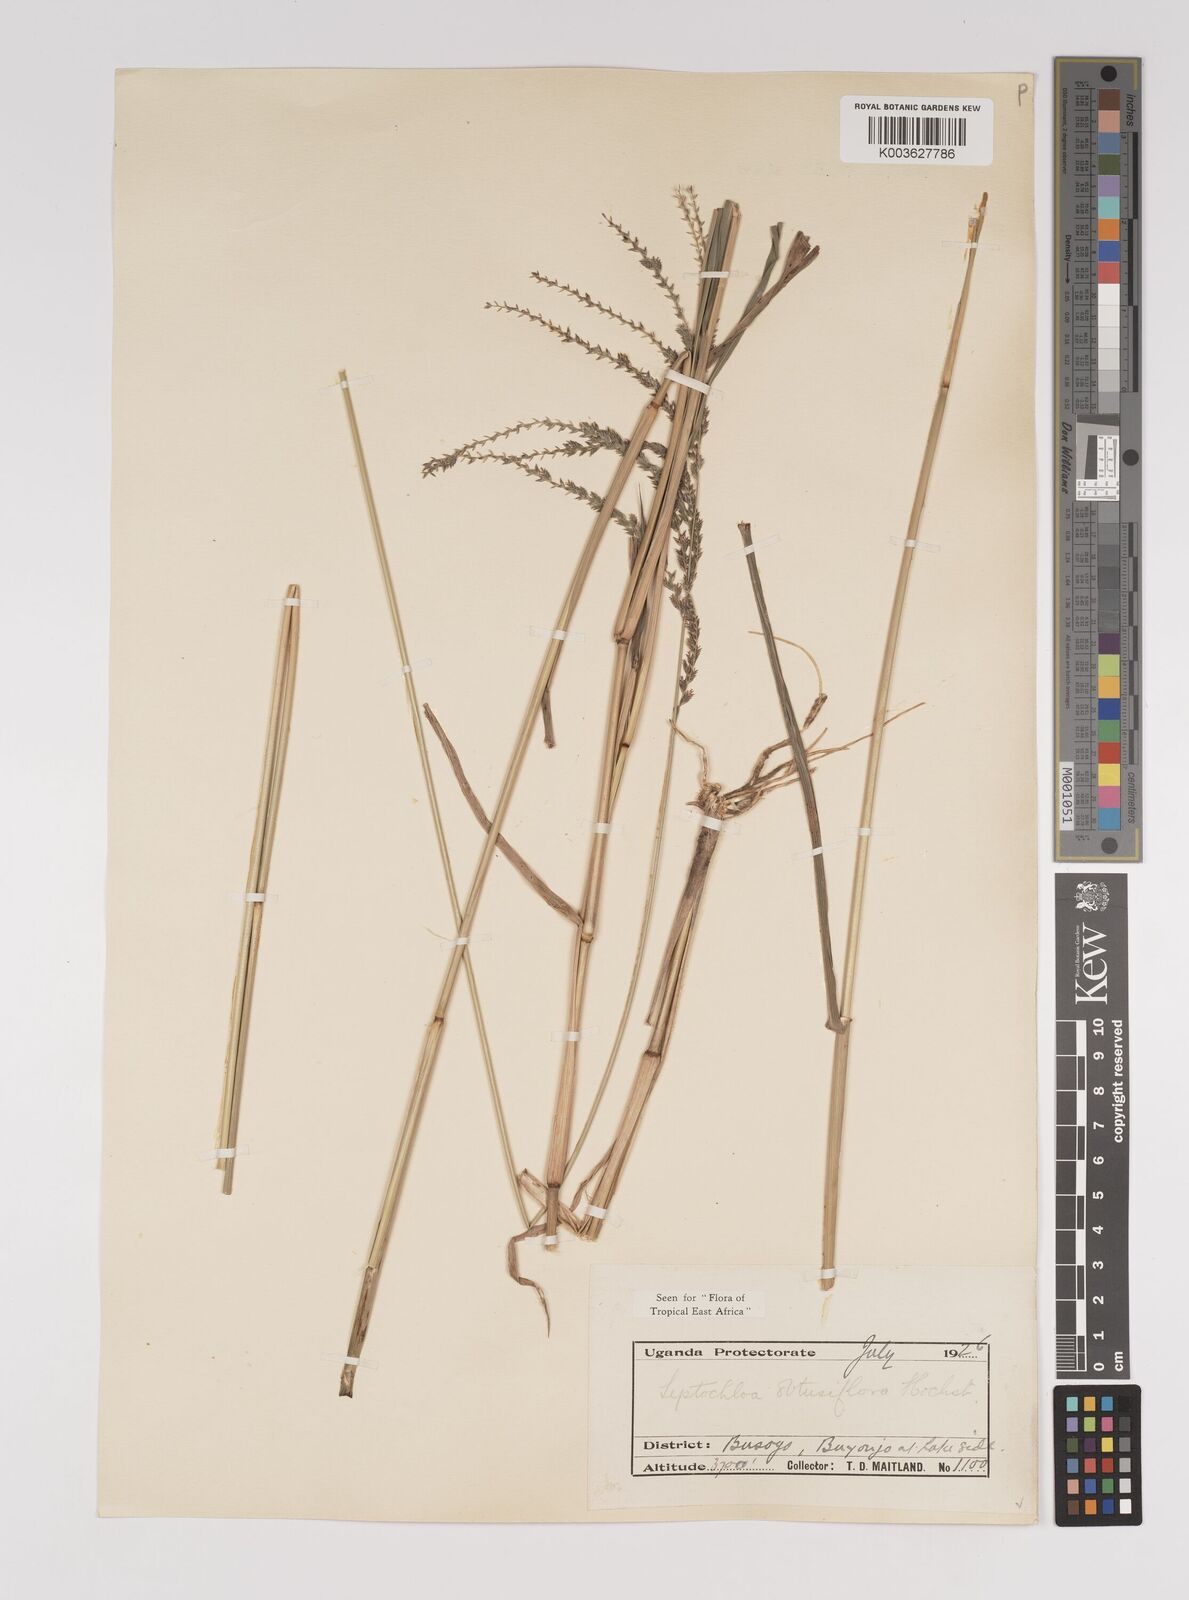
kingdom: Plantae
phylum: Tracheophyta
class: Liliopsida
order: Poales
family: Poaceae
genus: Disakisperma
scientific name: Disakisperma obtusiflorum
